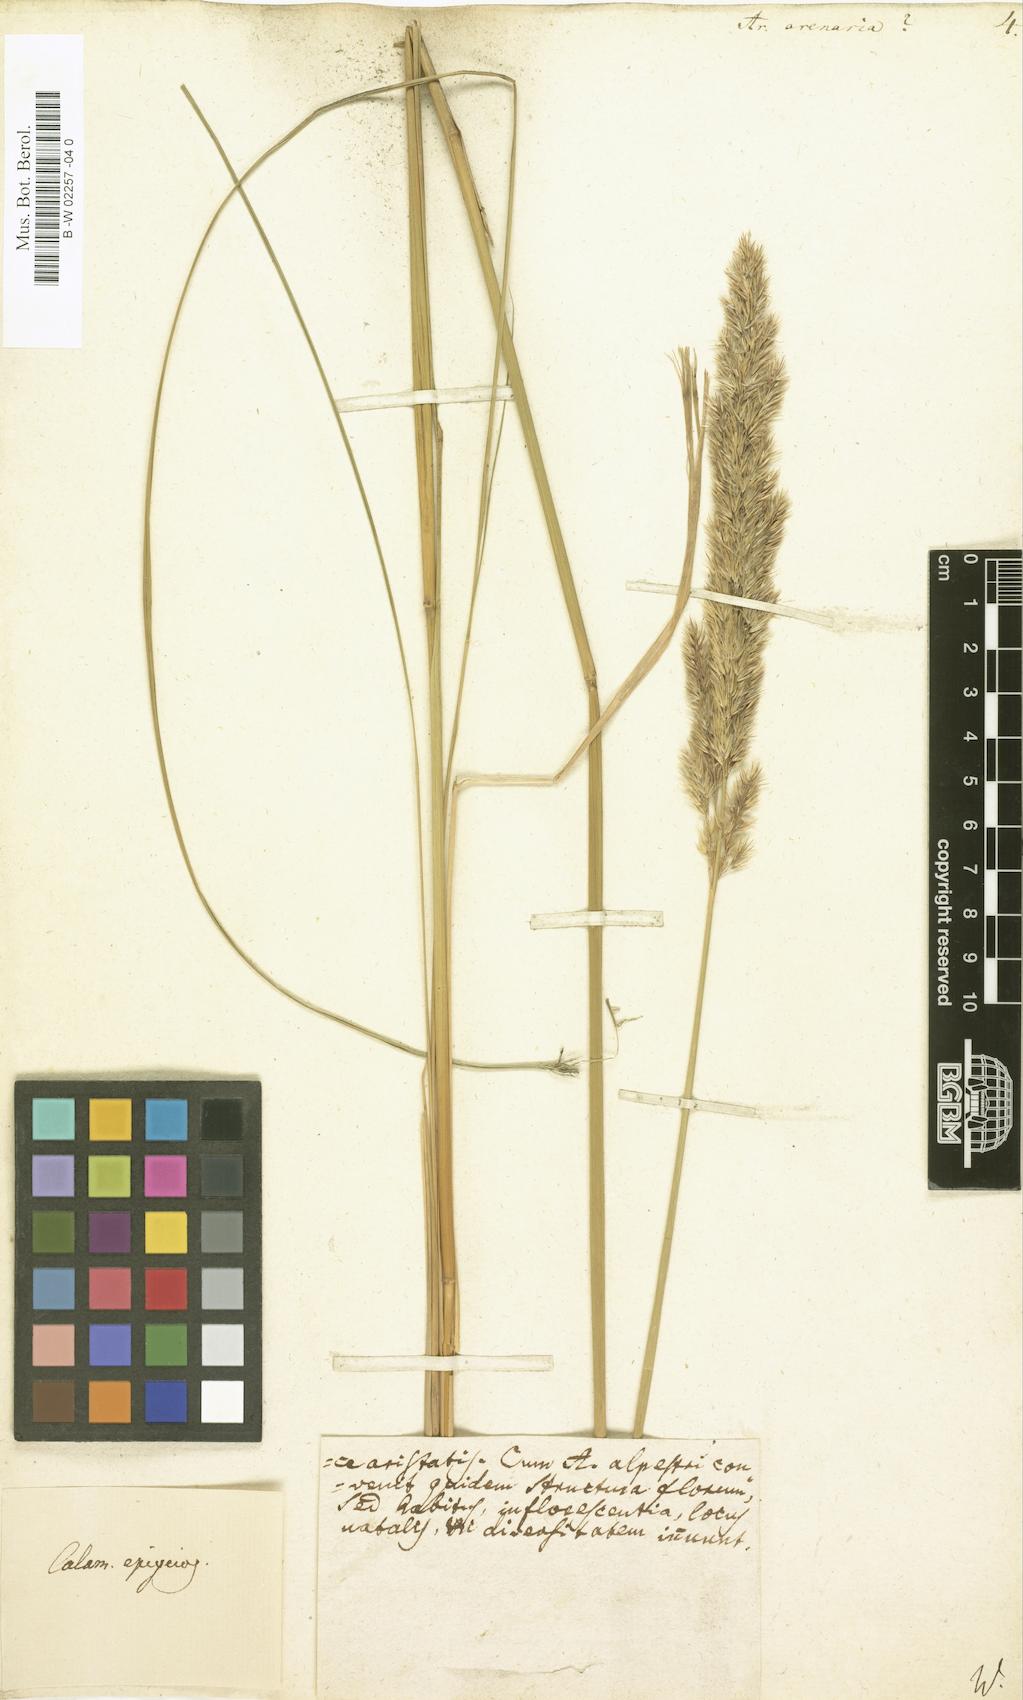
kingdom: Plantae
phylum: Tracheophyta
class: Liliopsida
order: Poales
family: Poaceae
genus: Arundo
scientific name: Arundo arenaria
